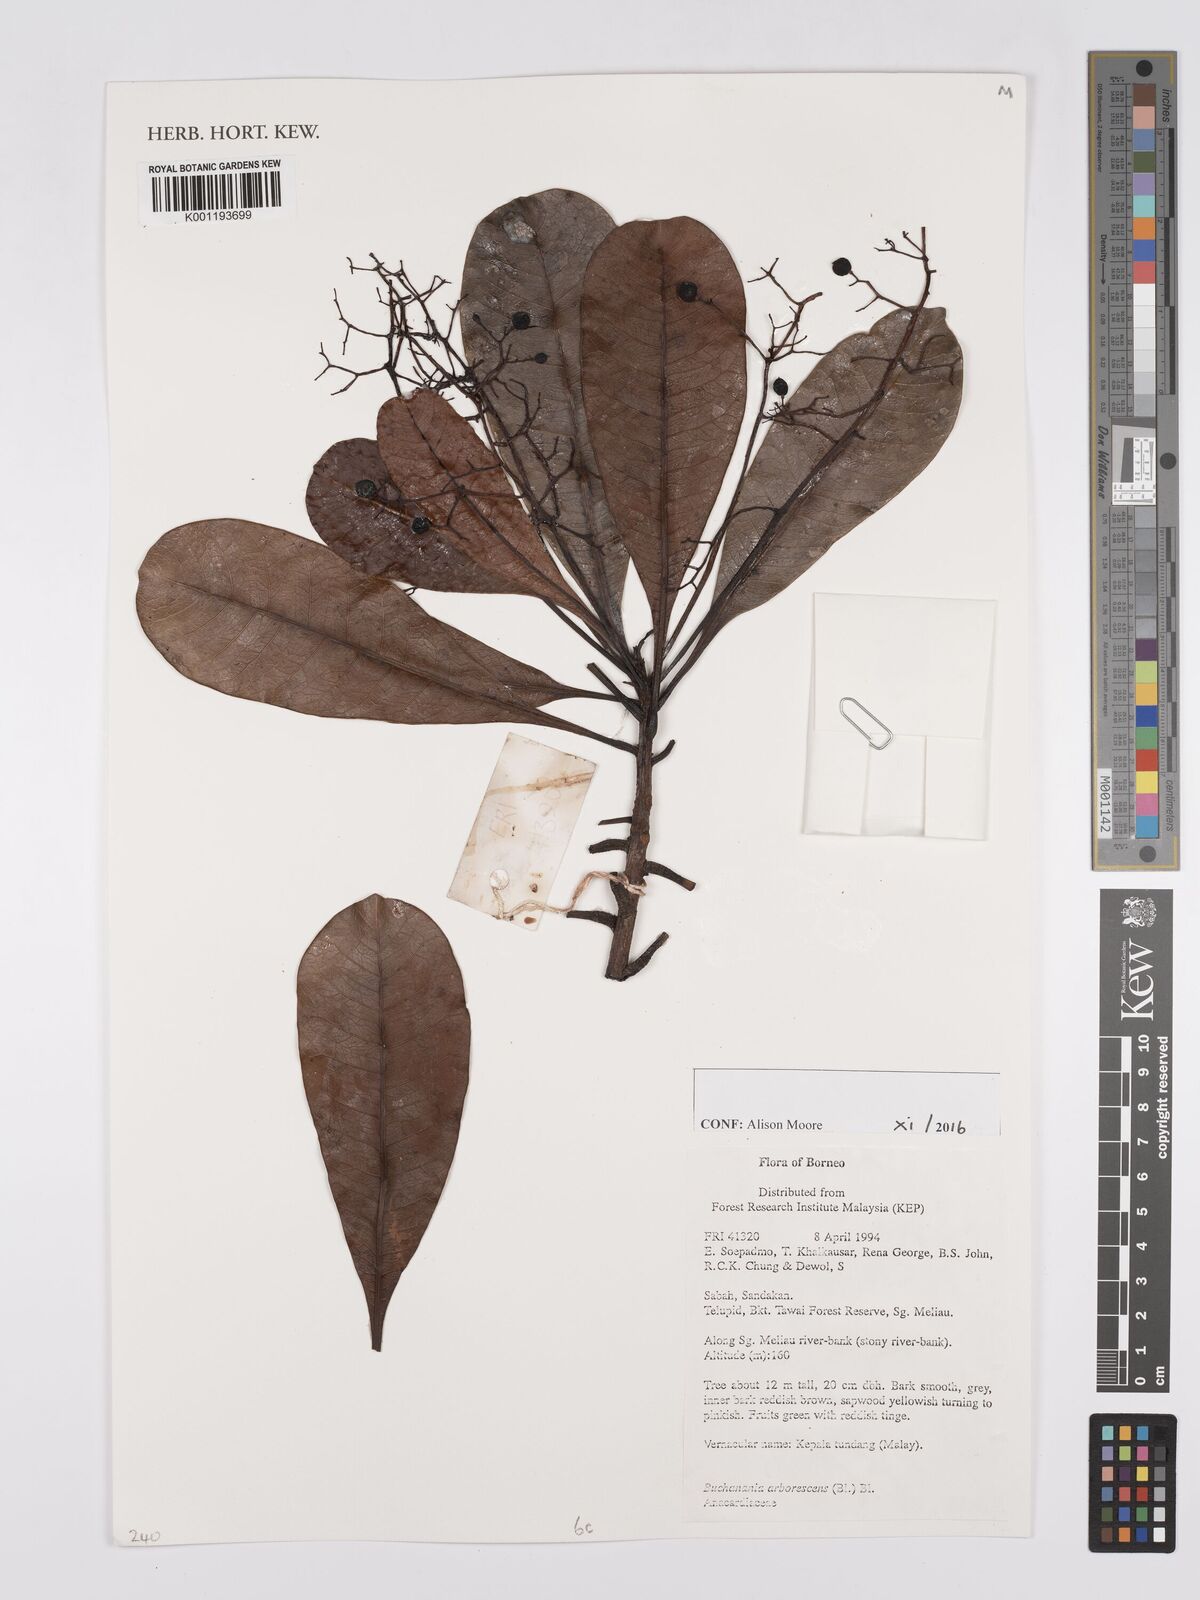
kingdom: Plantae
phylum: Tracheophyta
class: Magnoliopsida
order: Sapindales
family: Anacardiaceae
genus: Buchanania
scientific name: Buchanania arborescens
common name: Sparrow’s mango
